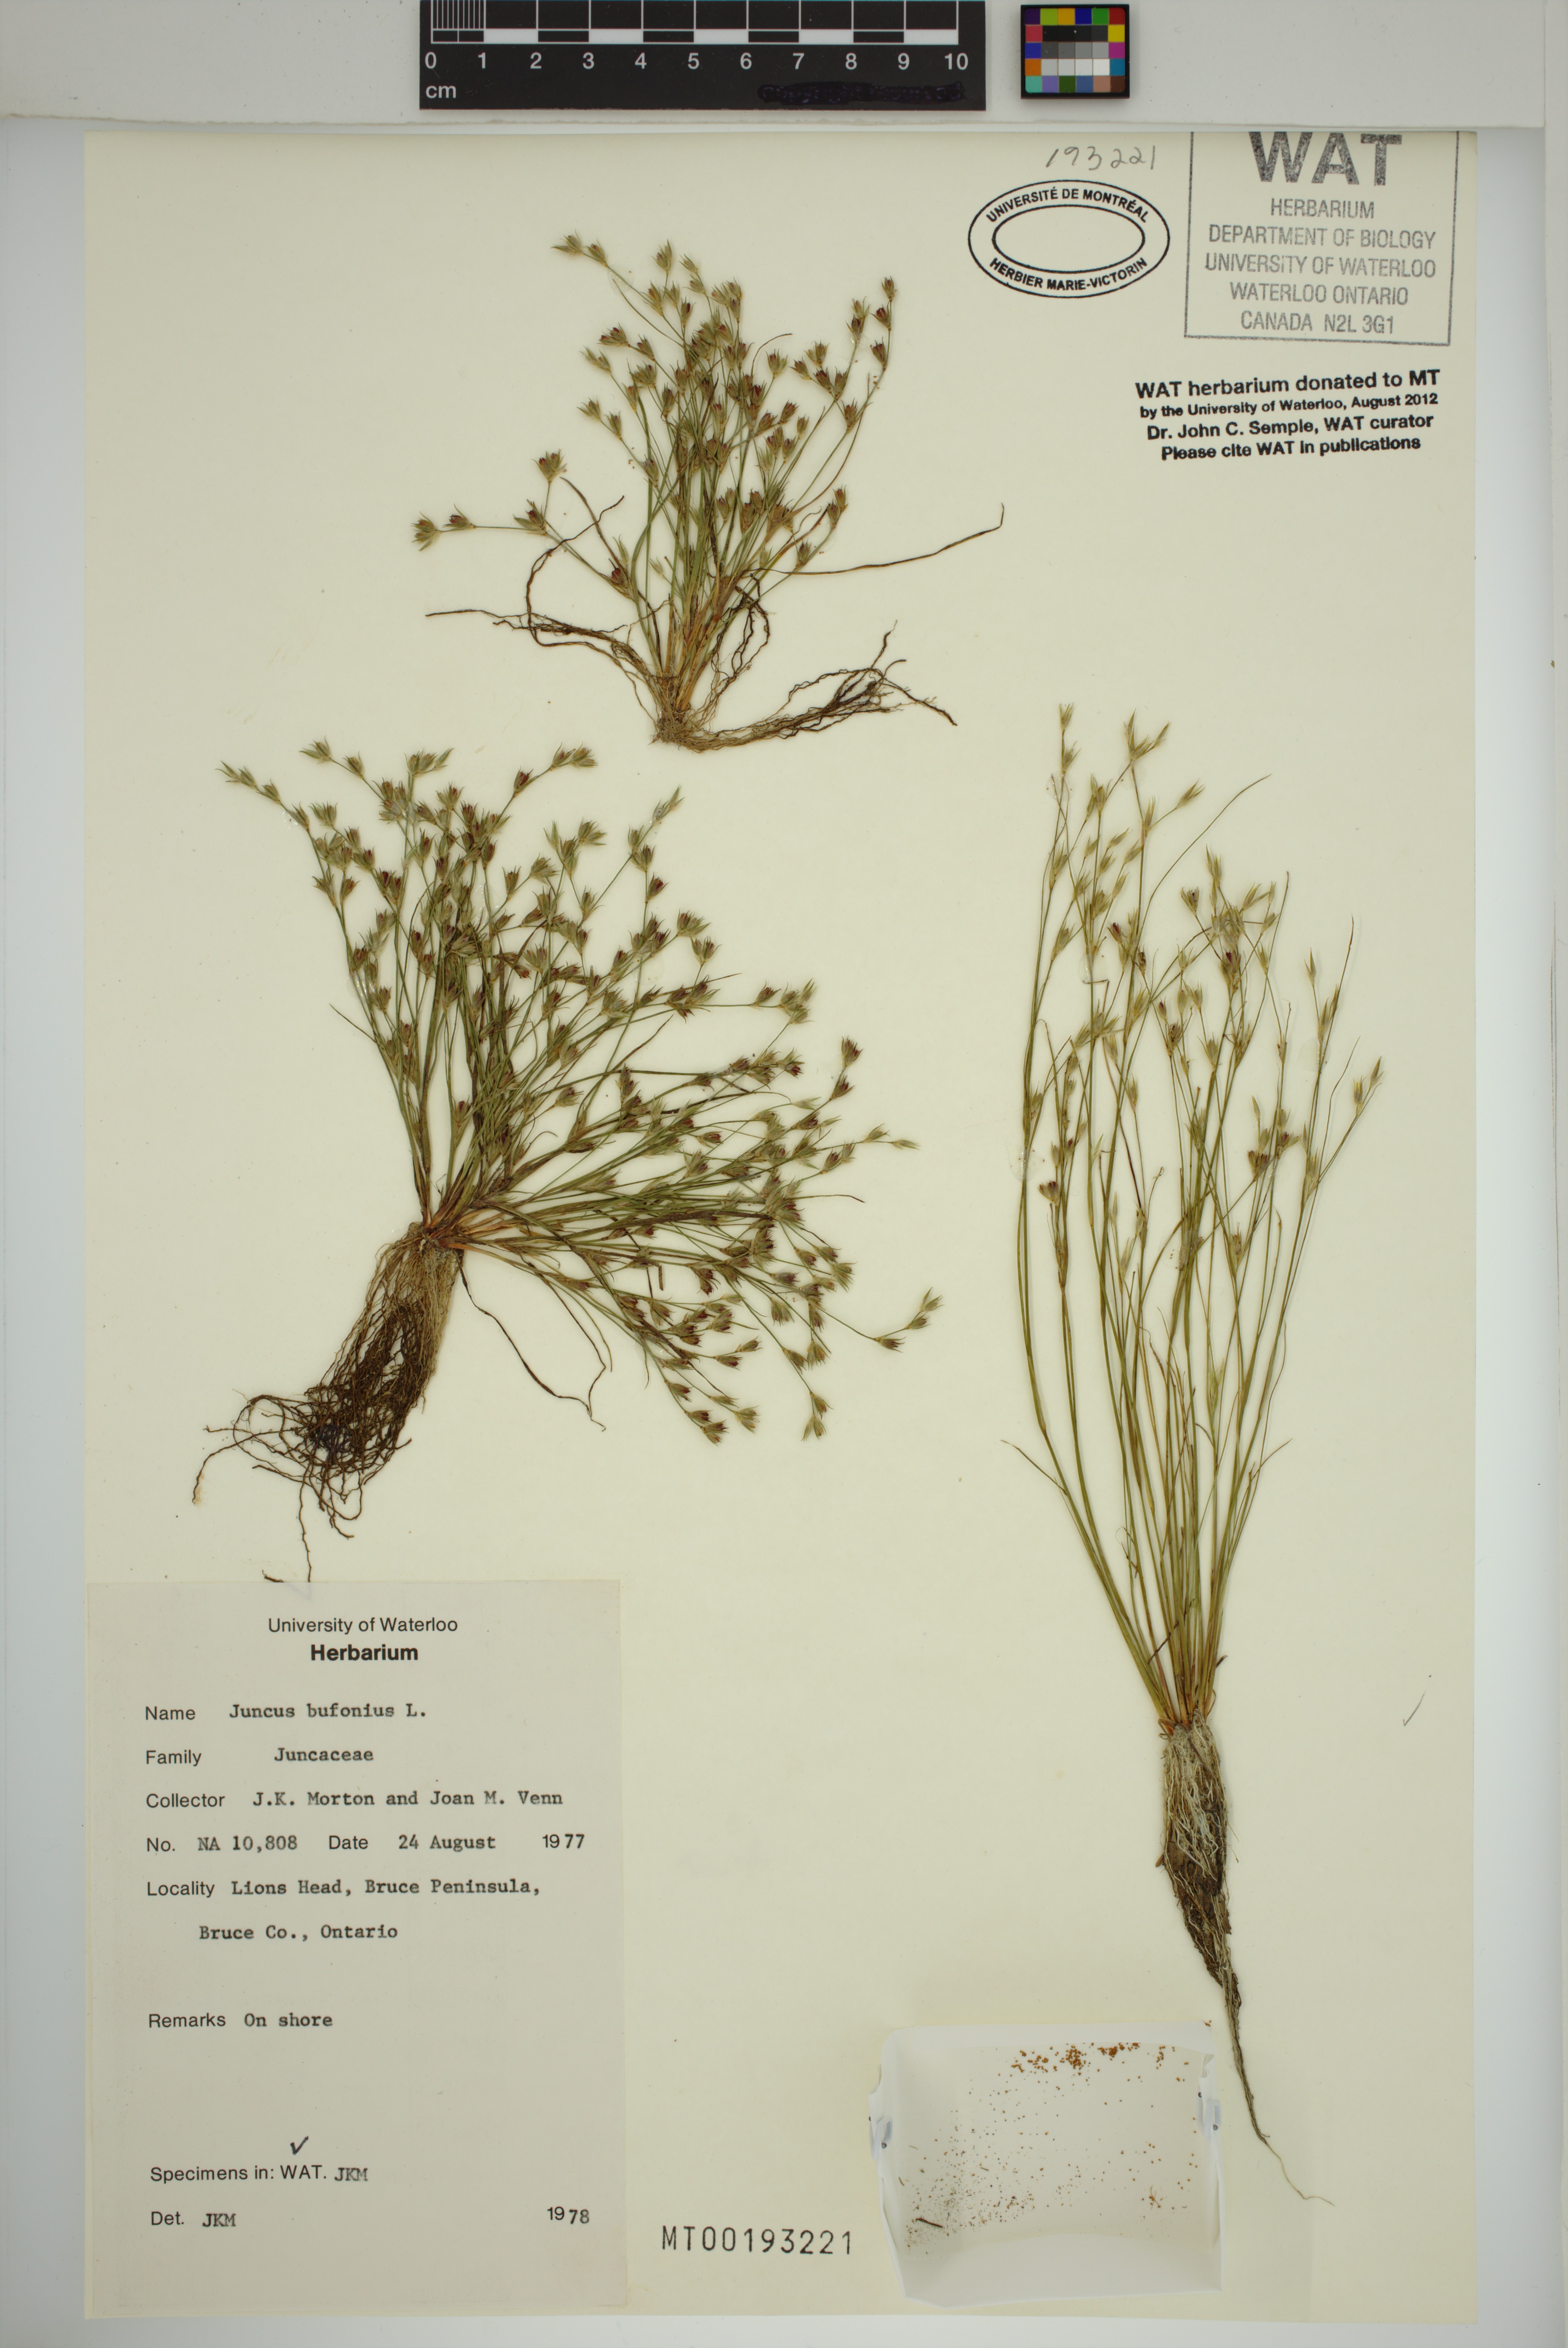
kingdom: Plantae
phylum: Tracheophyta
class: Liliopsida
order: Poales
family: Juncaceae
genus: Juncus
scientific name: Juncus bufonius
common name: Toad rush
